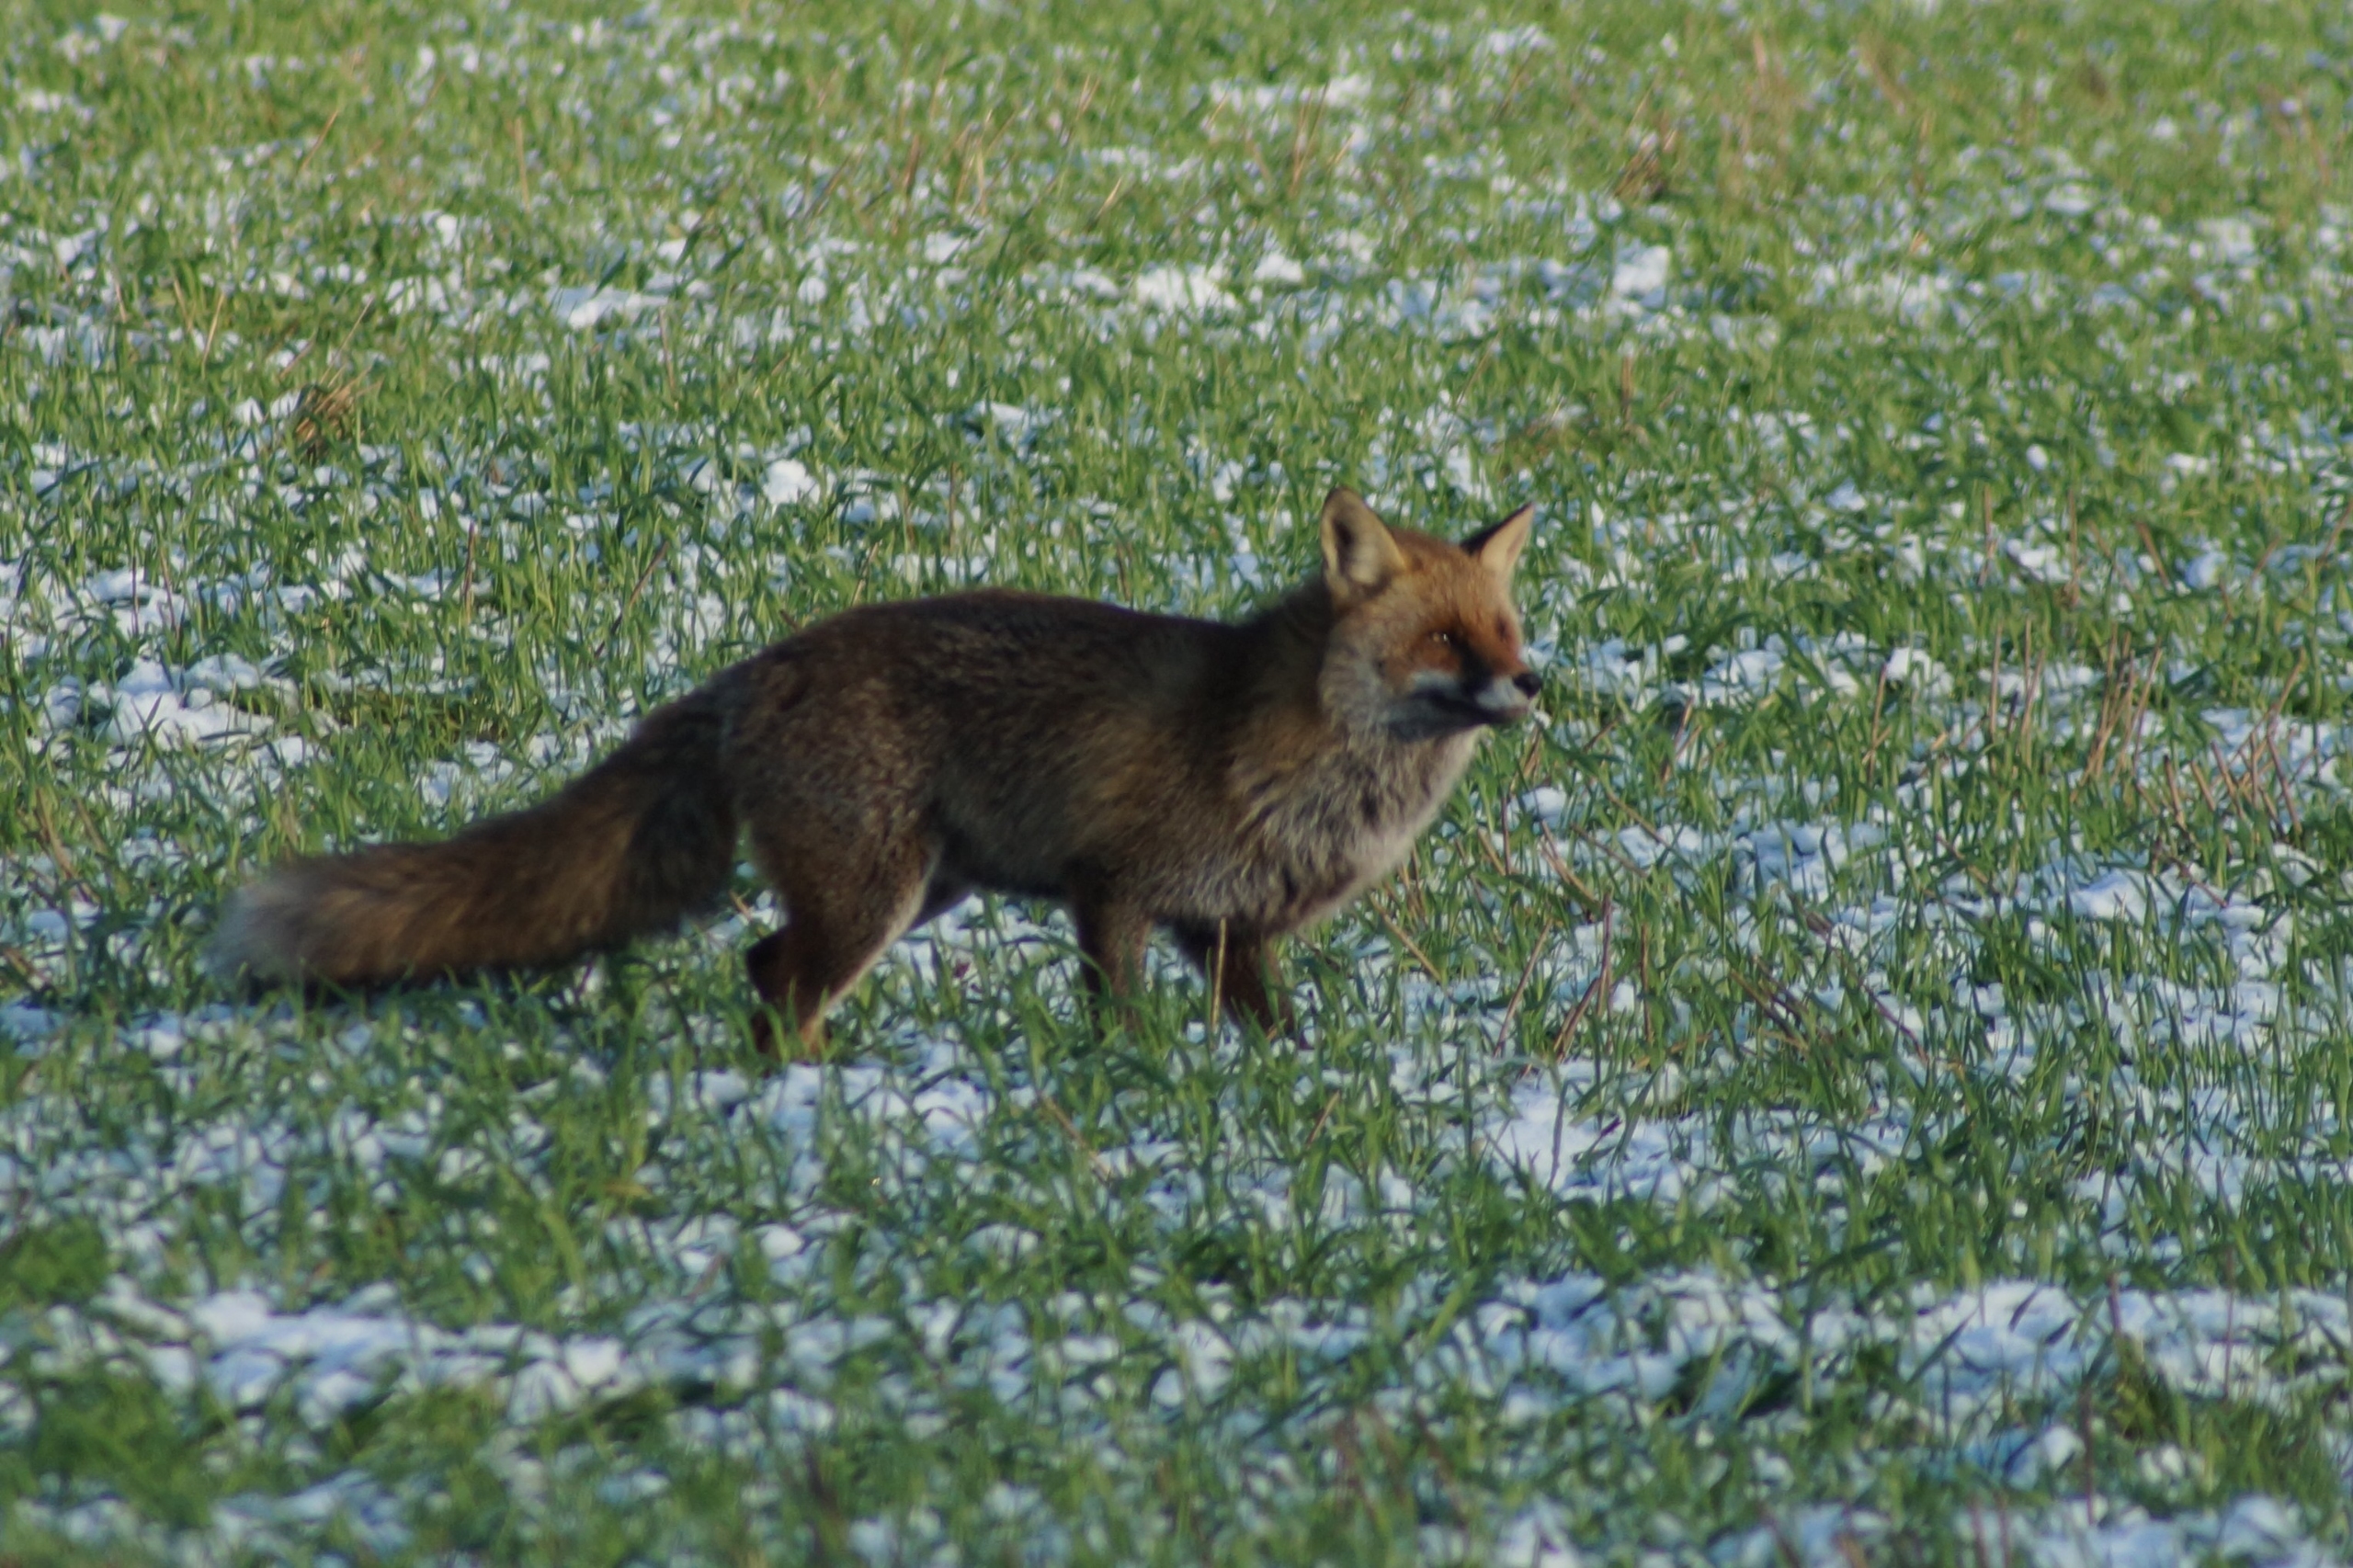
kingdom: Animalia
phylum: Chordata
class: Mammalia
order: Carnivora
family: Canidae
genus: Vulpes
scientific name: Vulpes vulpes
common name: Ræv
